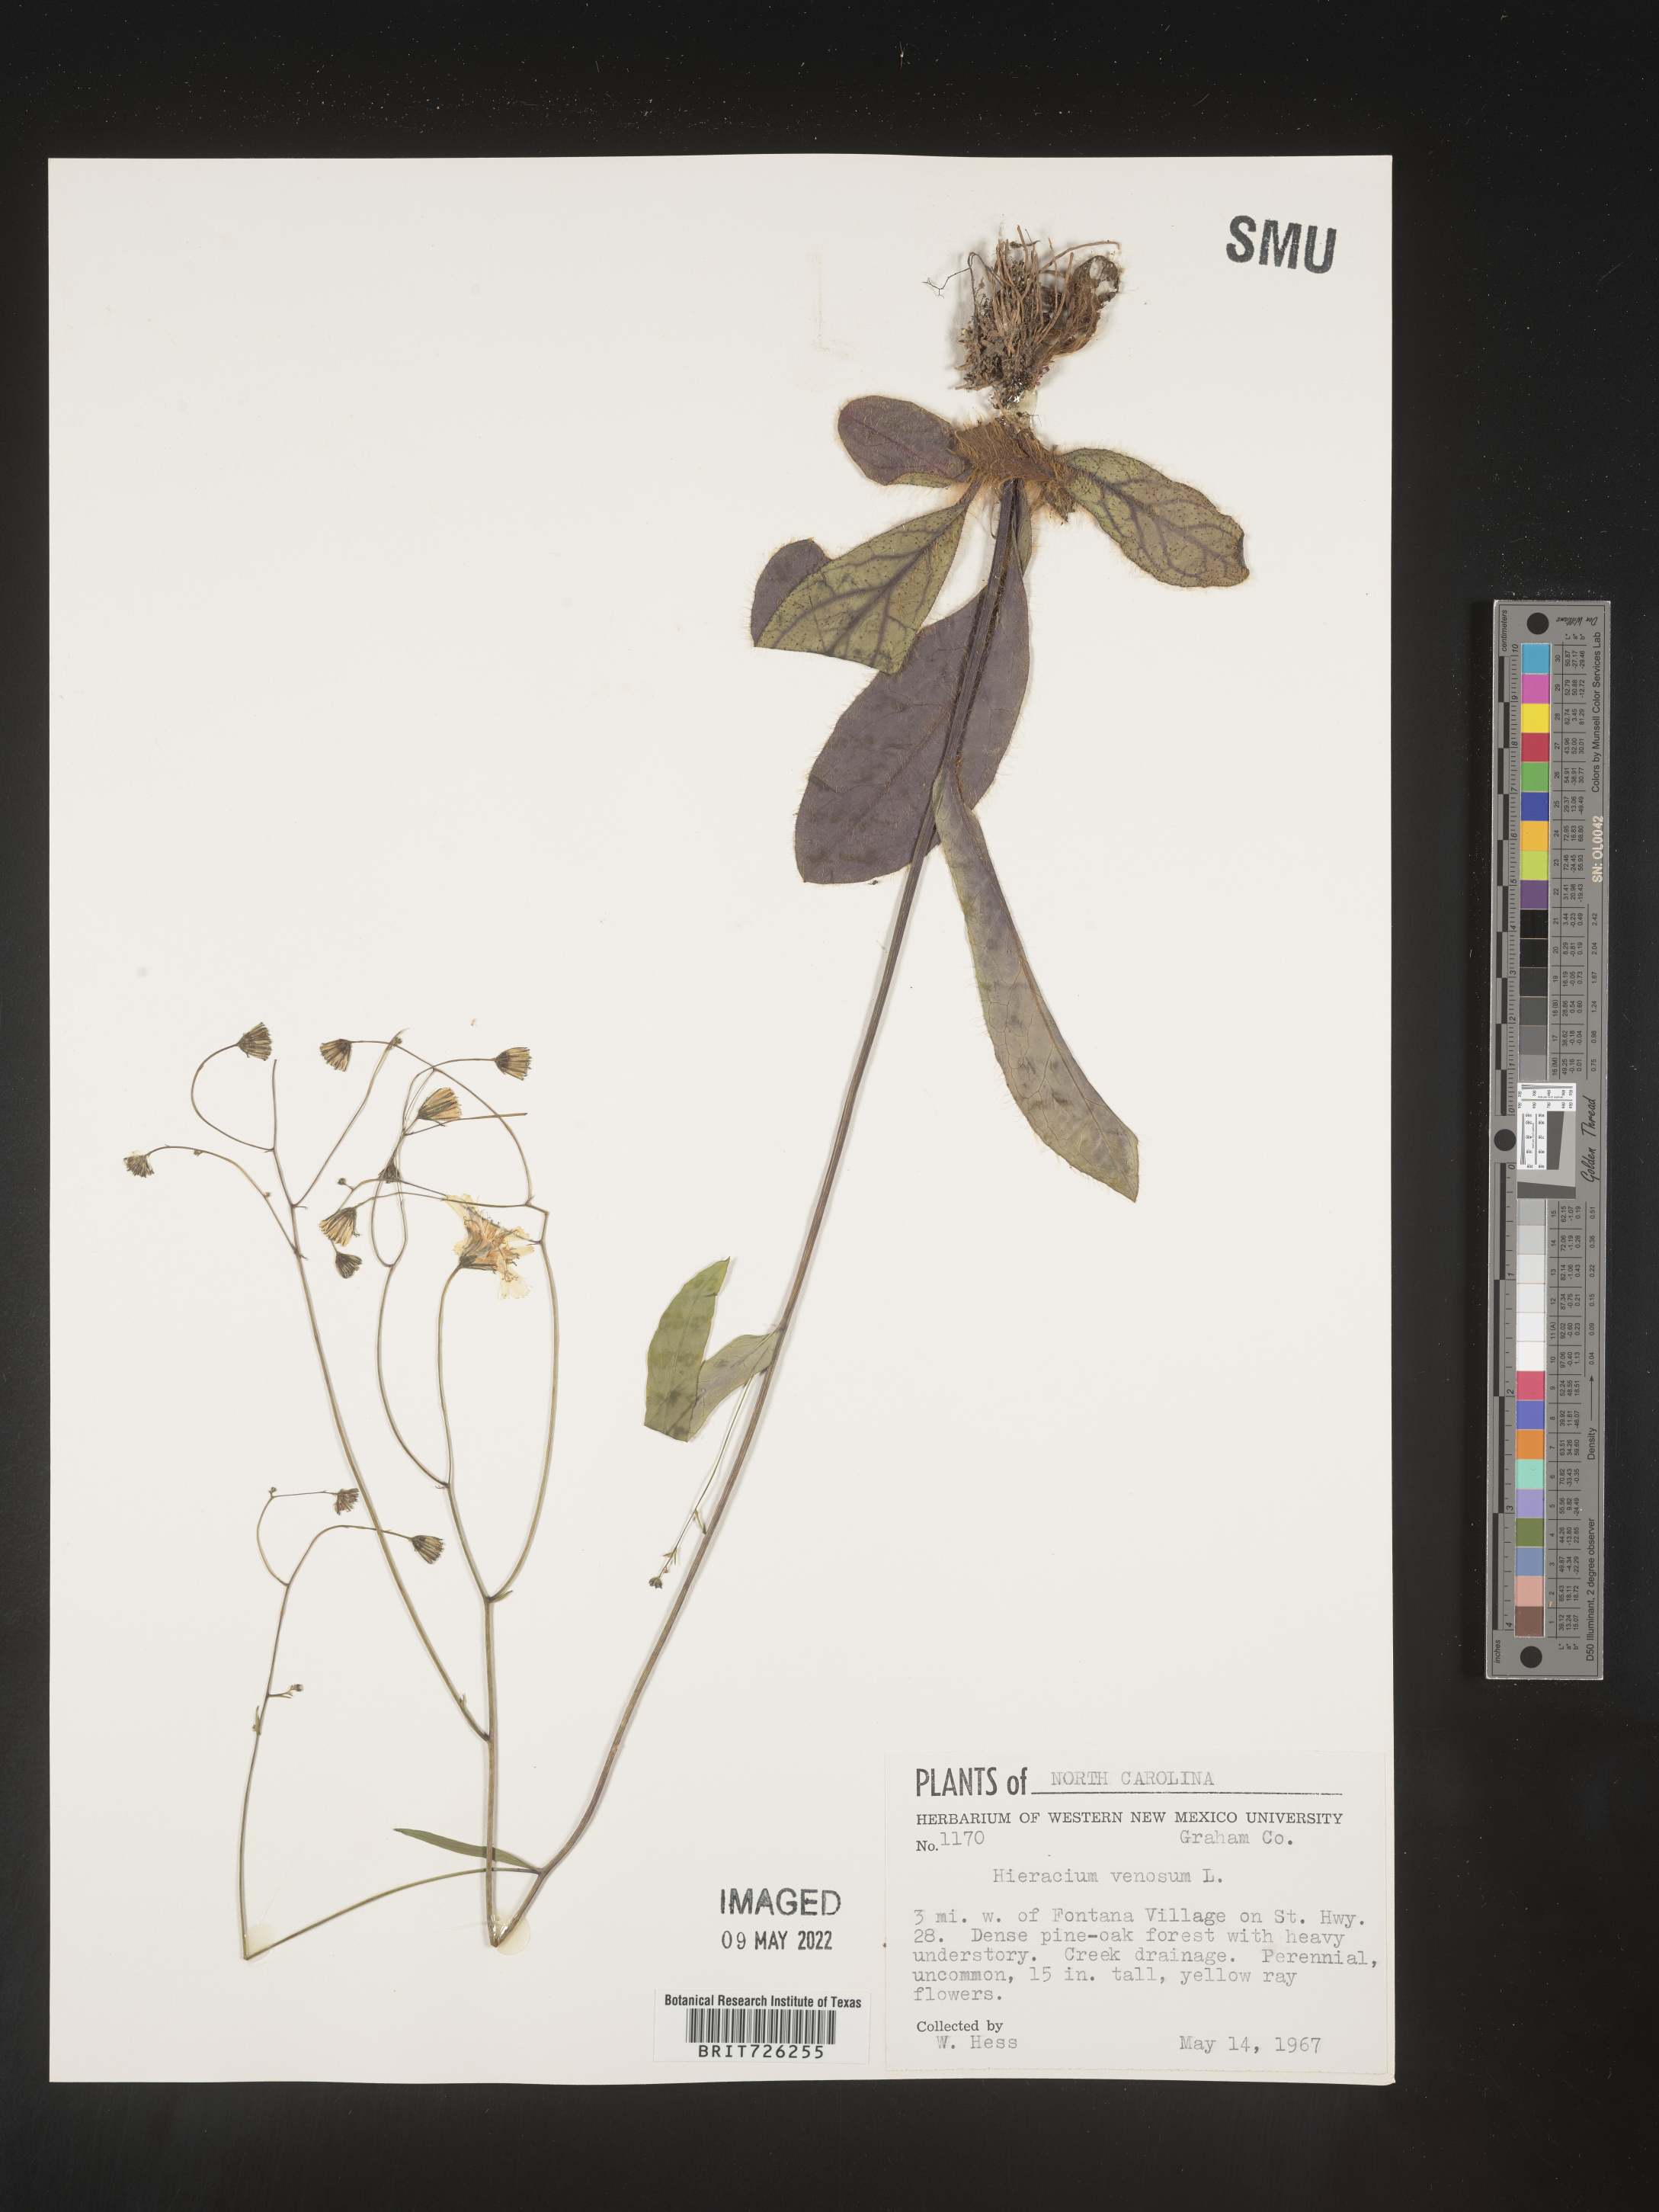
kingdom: Plantae
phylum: Tracheophyta
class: Magnoliopsida
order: Asterales
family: Asteraceae
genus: Hieracium
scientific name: Hieracium
